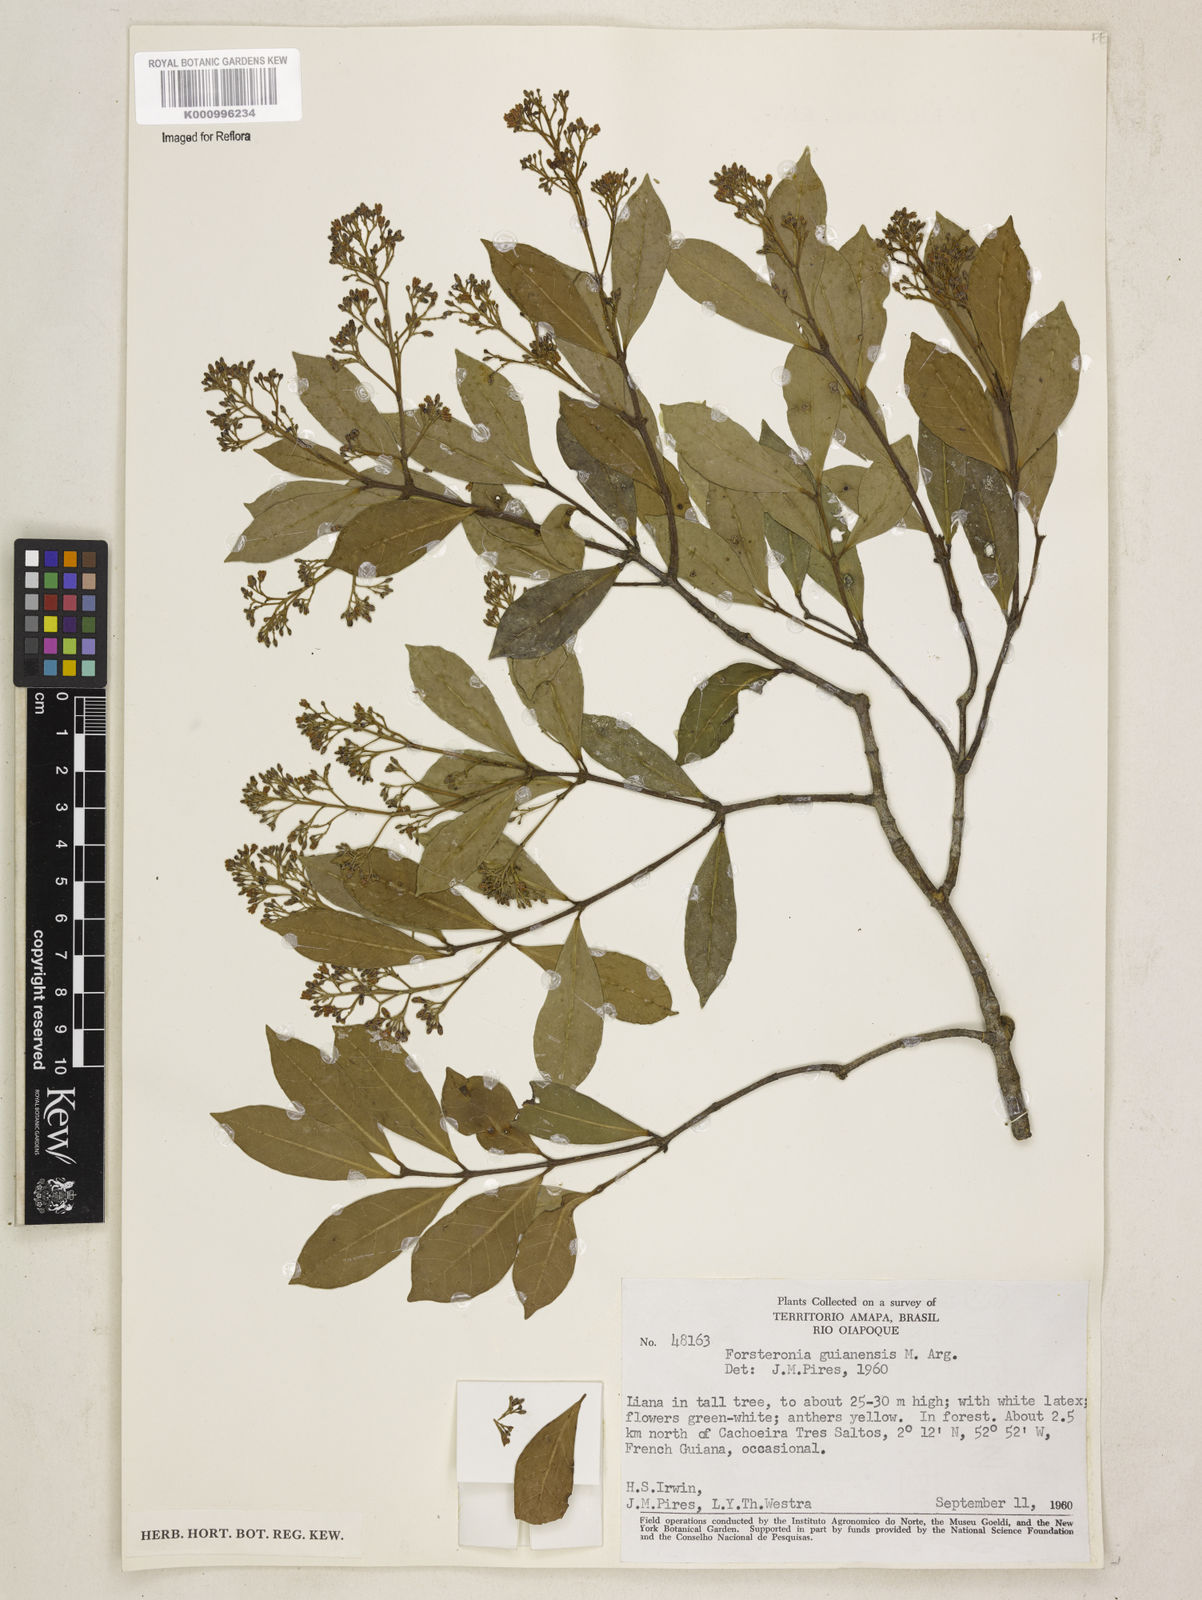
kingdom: Plantae
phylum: Tracheophyta
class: Magnoliopsida
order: Gentianales
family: Apocynaceae
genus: Forsteronia
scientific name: Forsteronia
